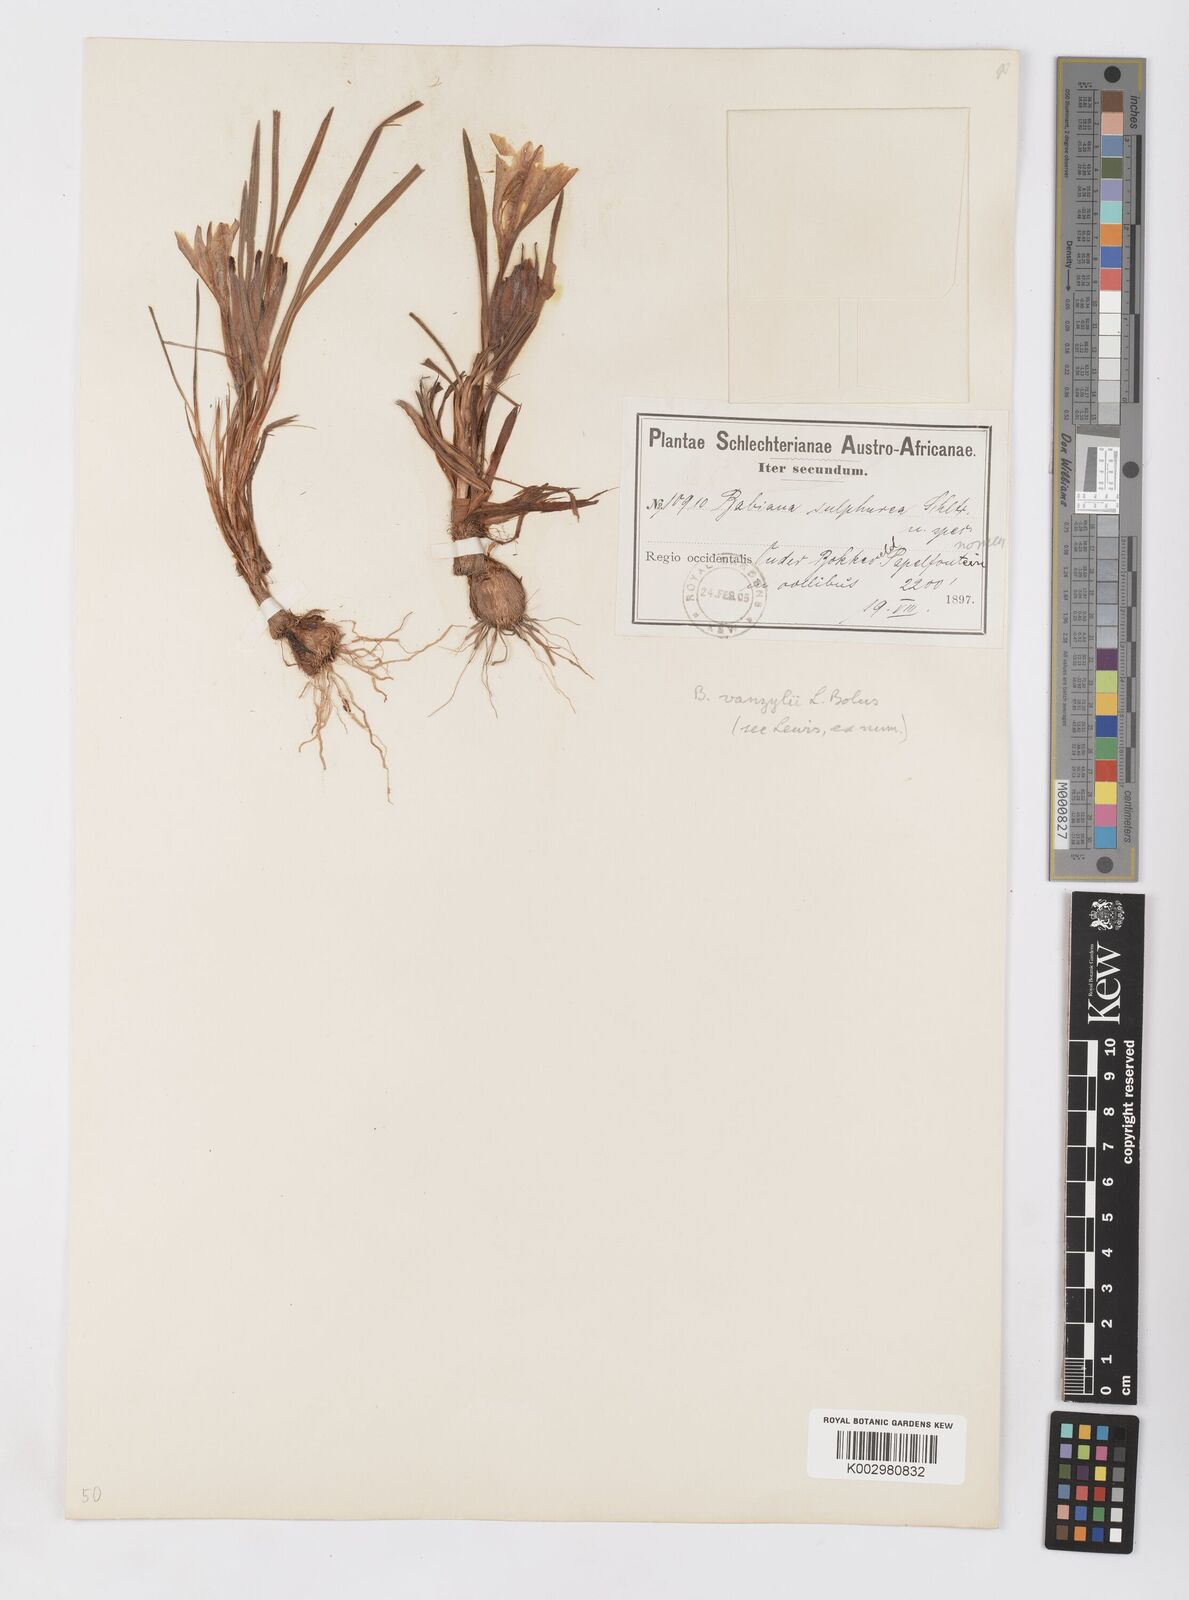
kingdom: Plantae
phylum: Tracheophyta
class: Liliopsida
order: Asparagales
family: Iridaceae
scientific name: Iridaceae
